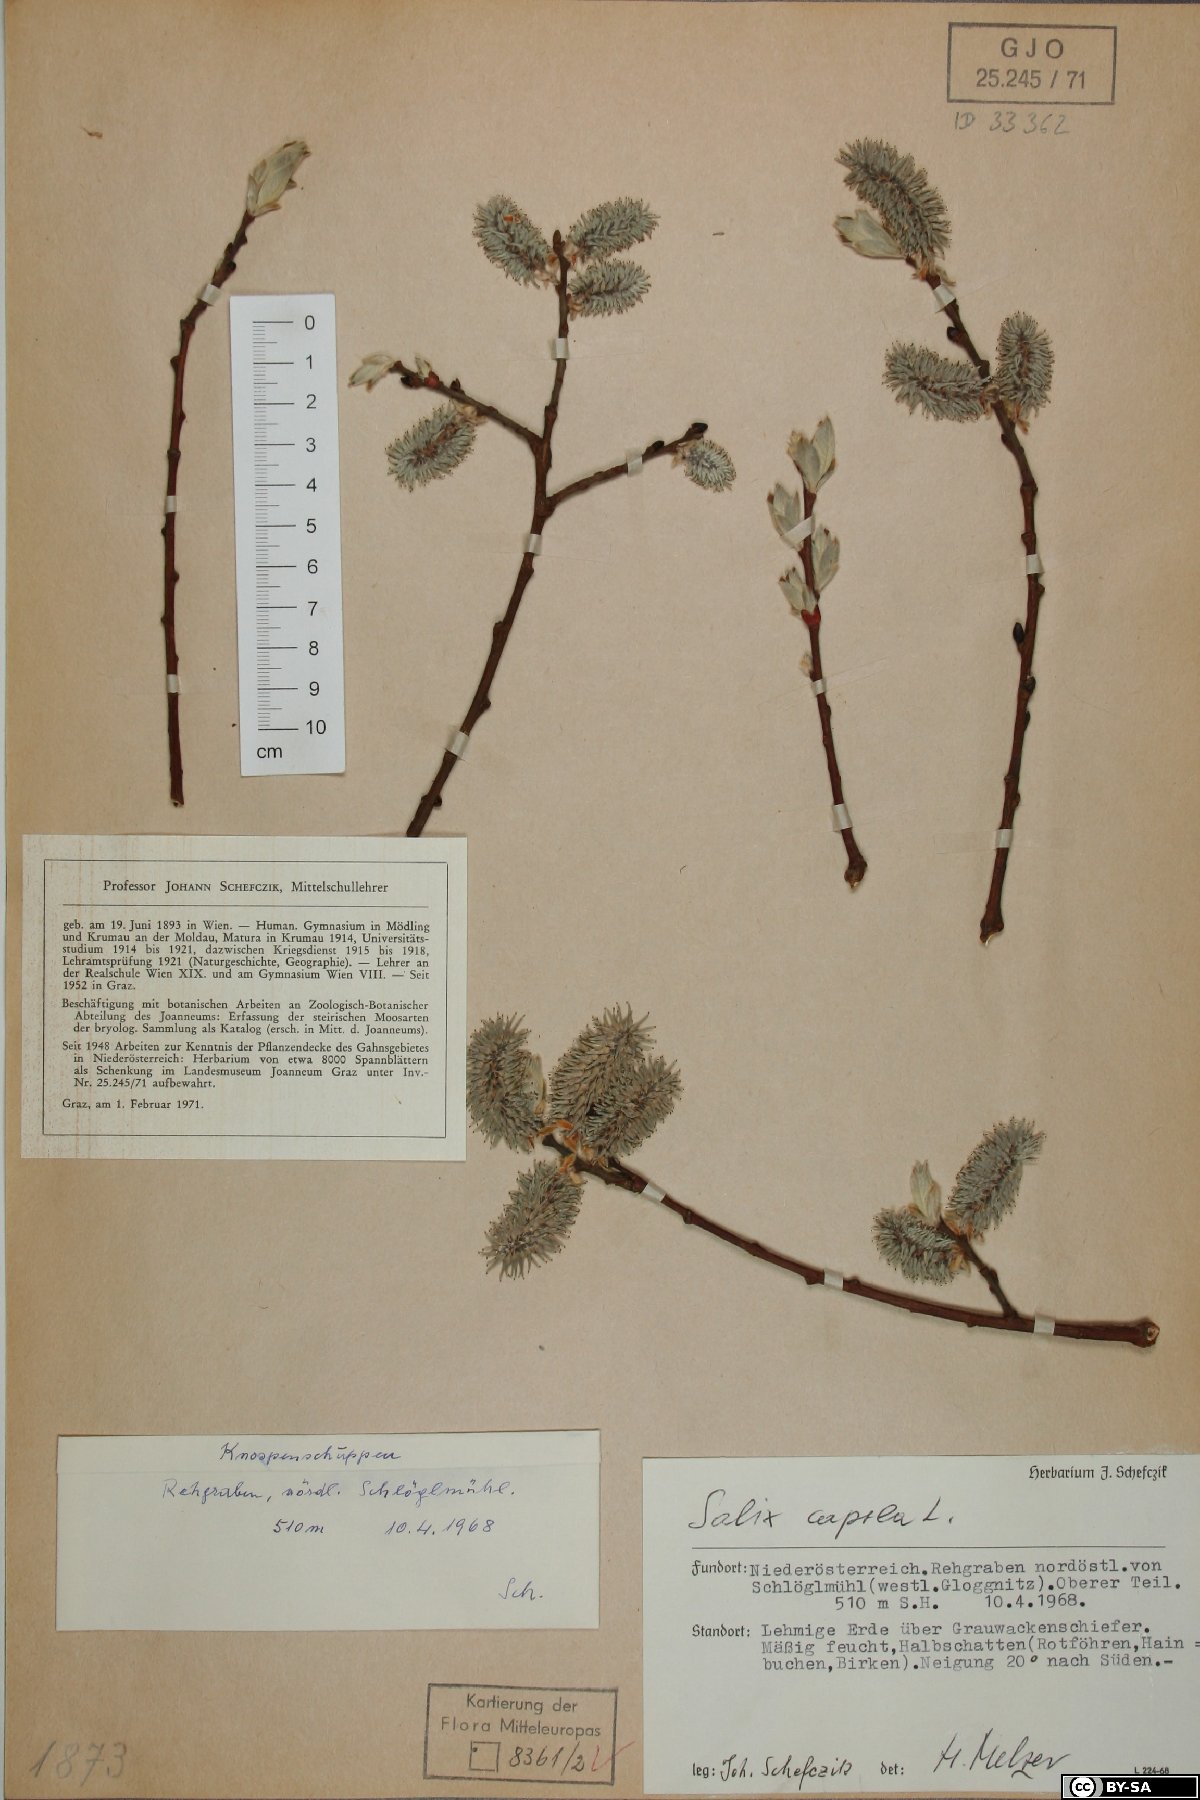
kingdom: Plantae
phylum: Tracheophyta
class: Magnoliopsida
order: Malpighiales
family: Salicaceae
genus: Salix
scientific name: Salix caprea
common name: Goat willow
